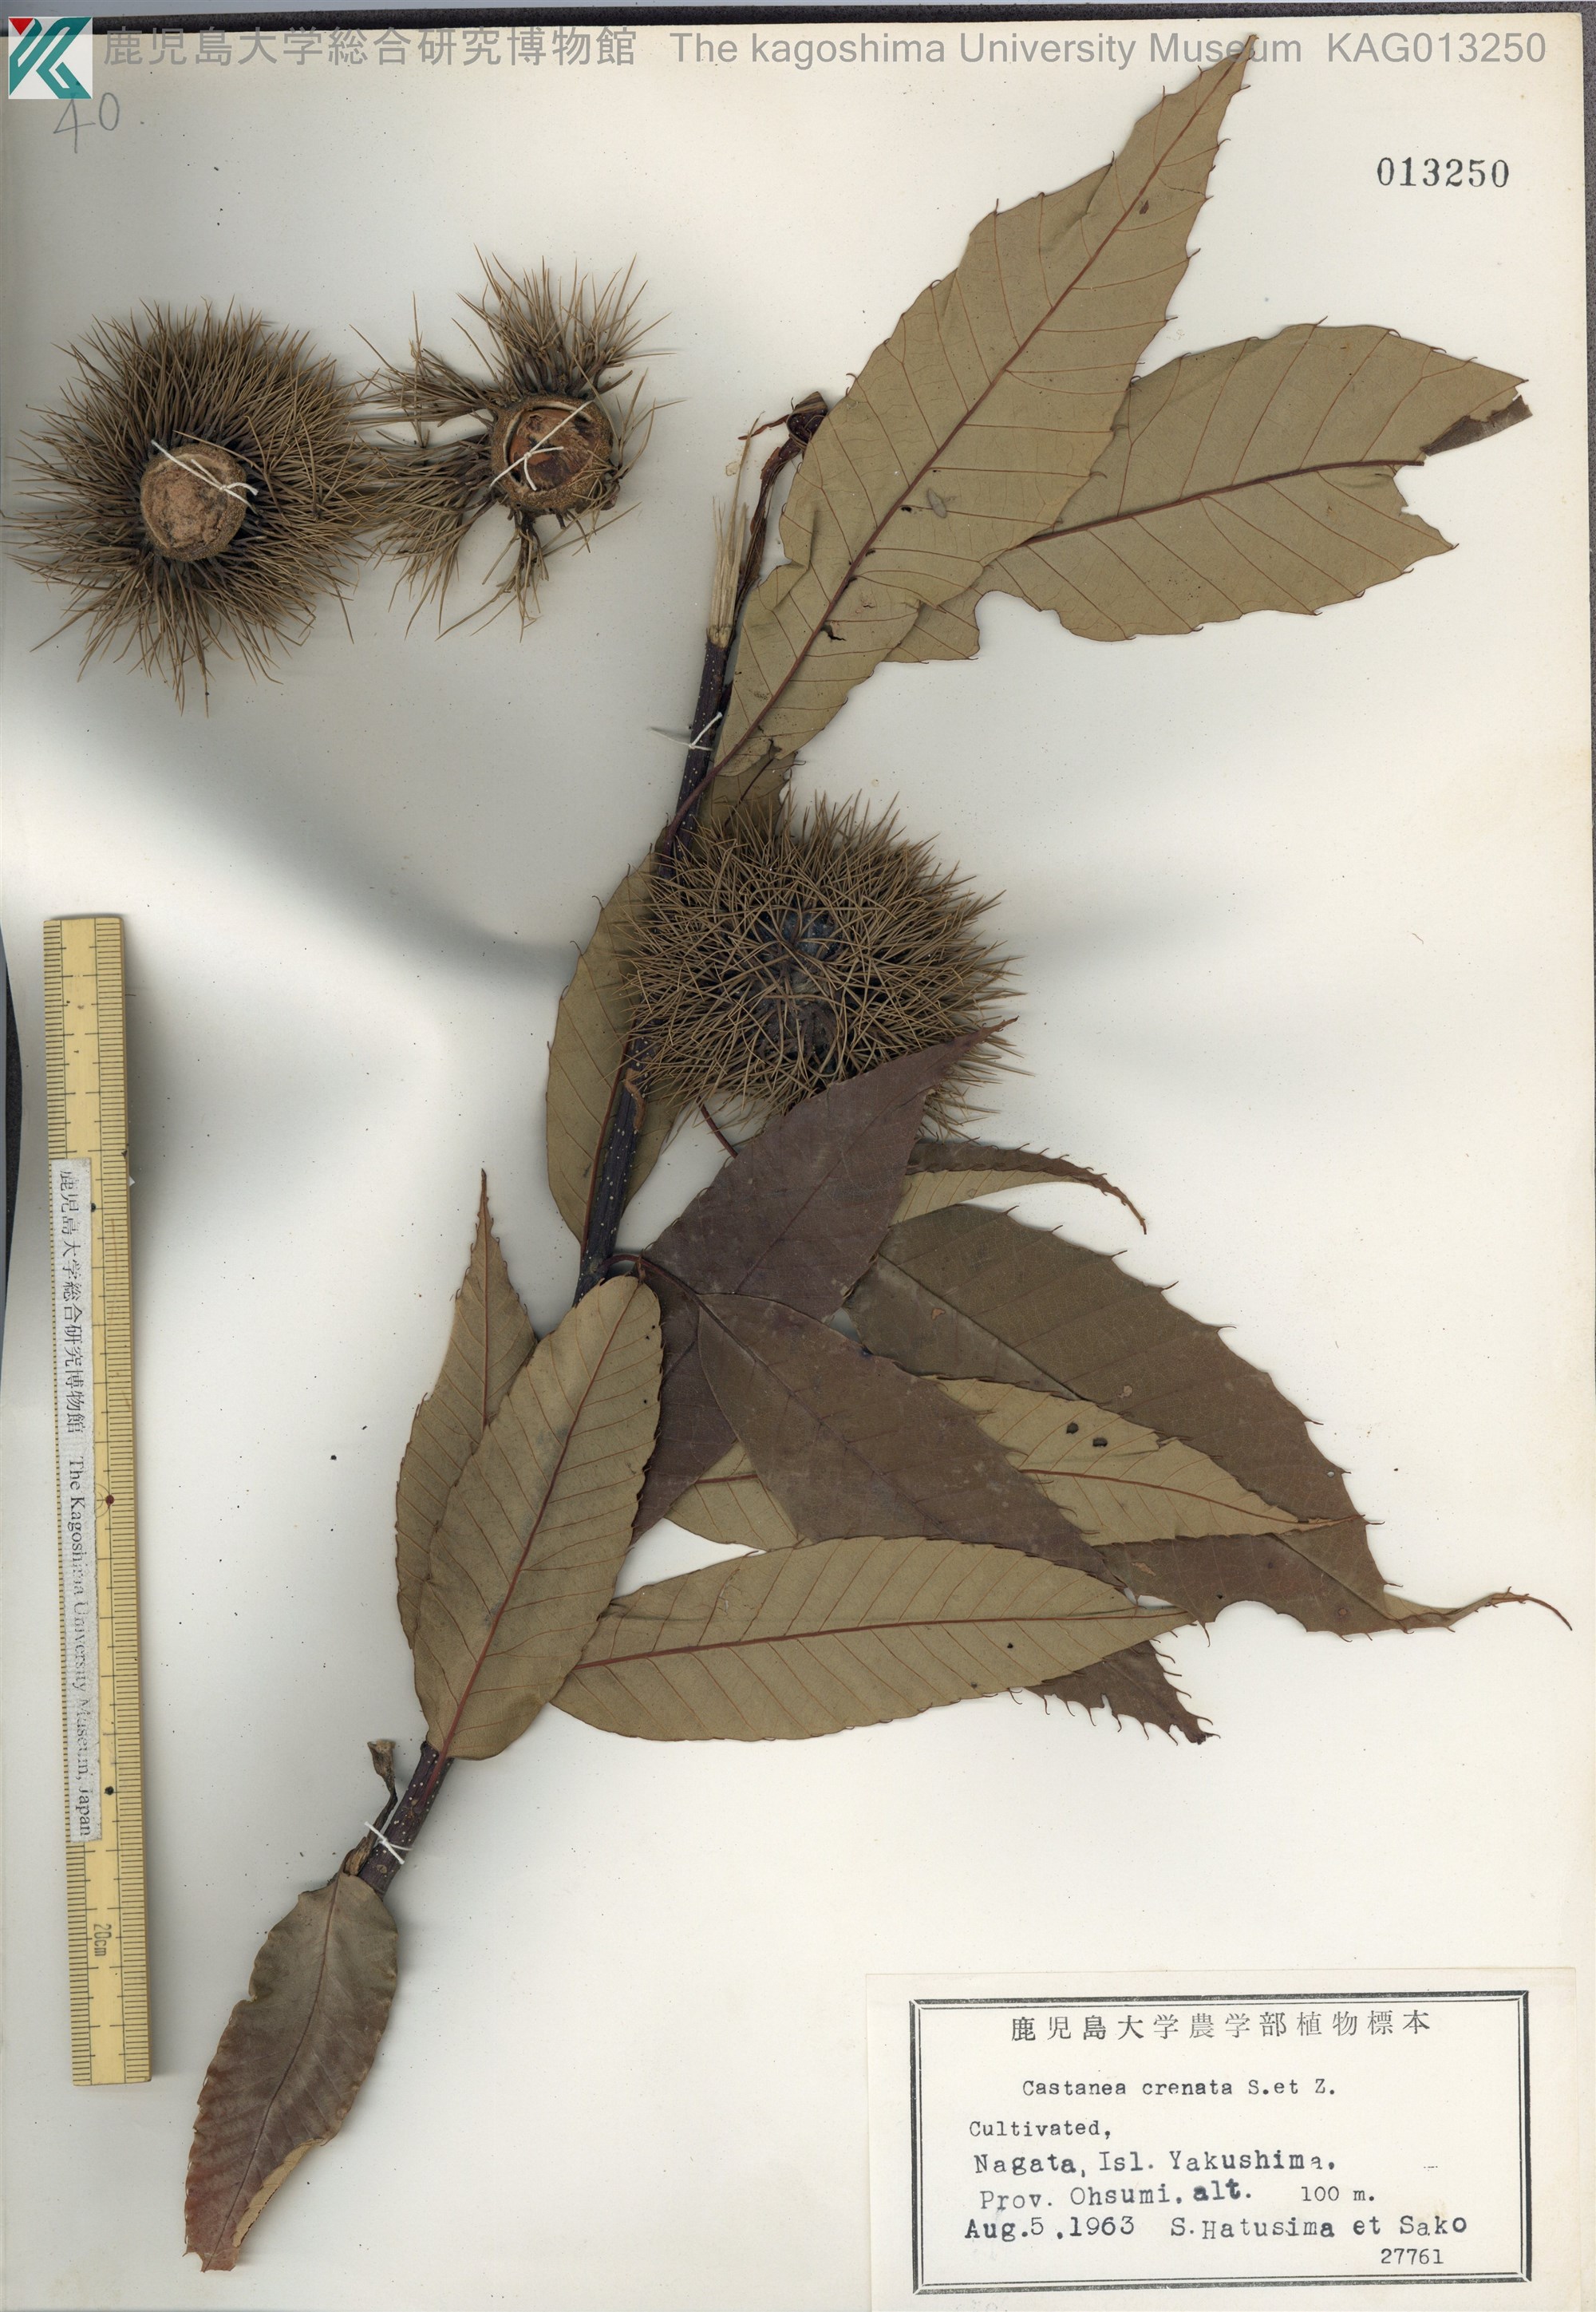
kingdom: Plantae
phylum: Tracheophyta
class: Magnoliopsida
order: Fagales
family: Fagaceae
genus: Castanea
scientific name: Castanea crenata
